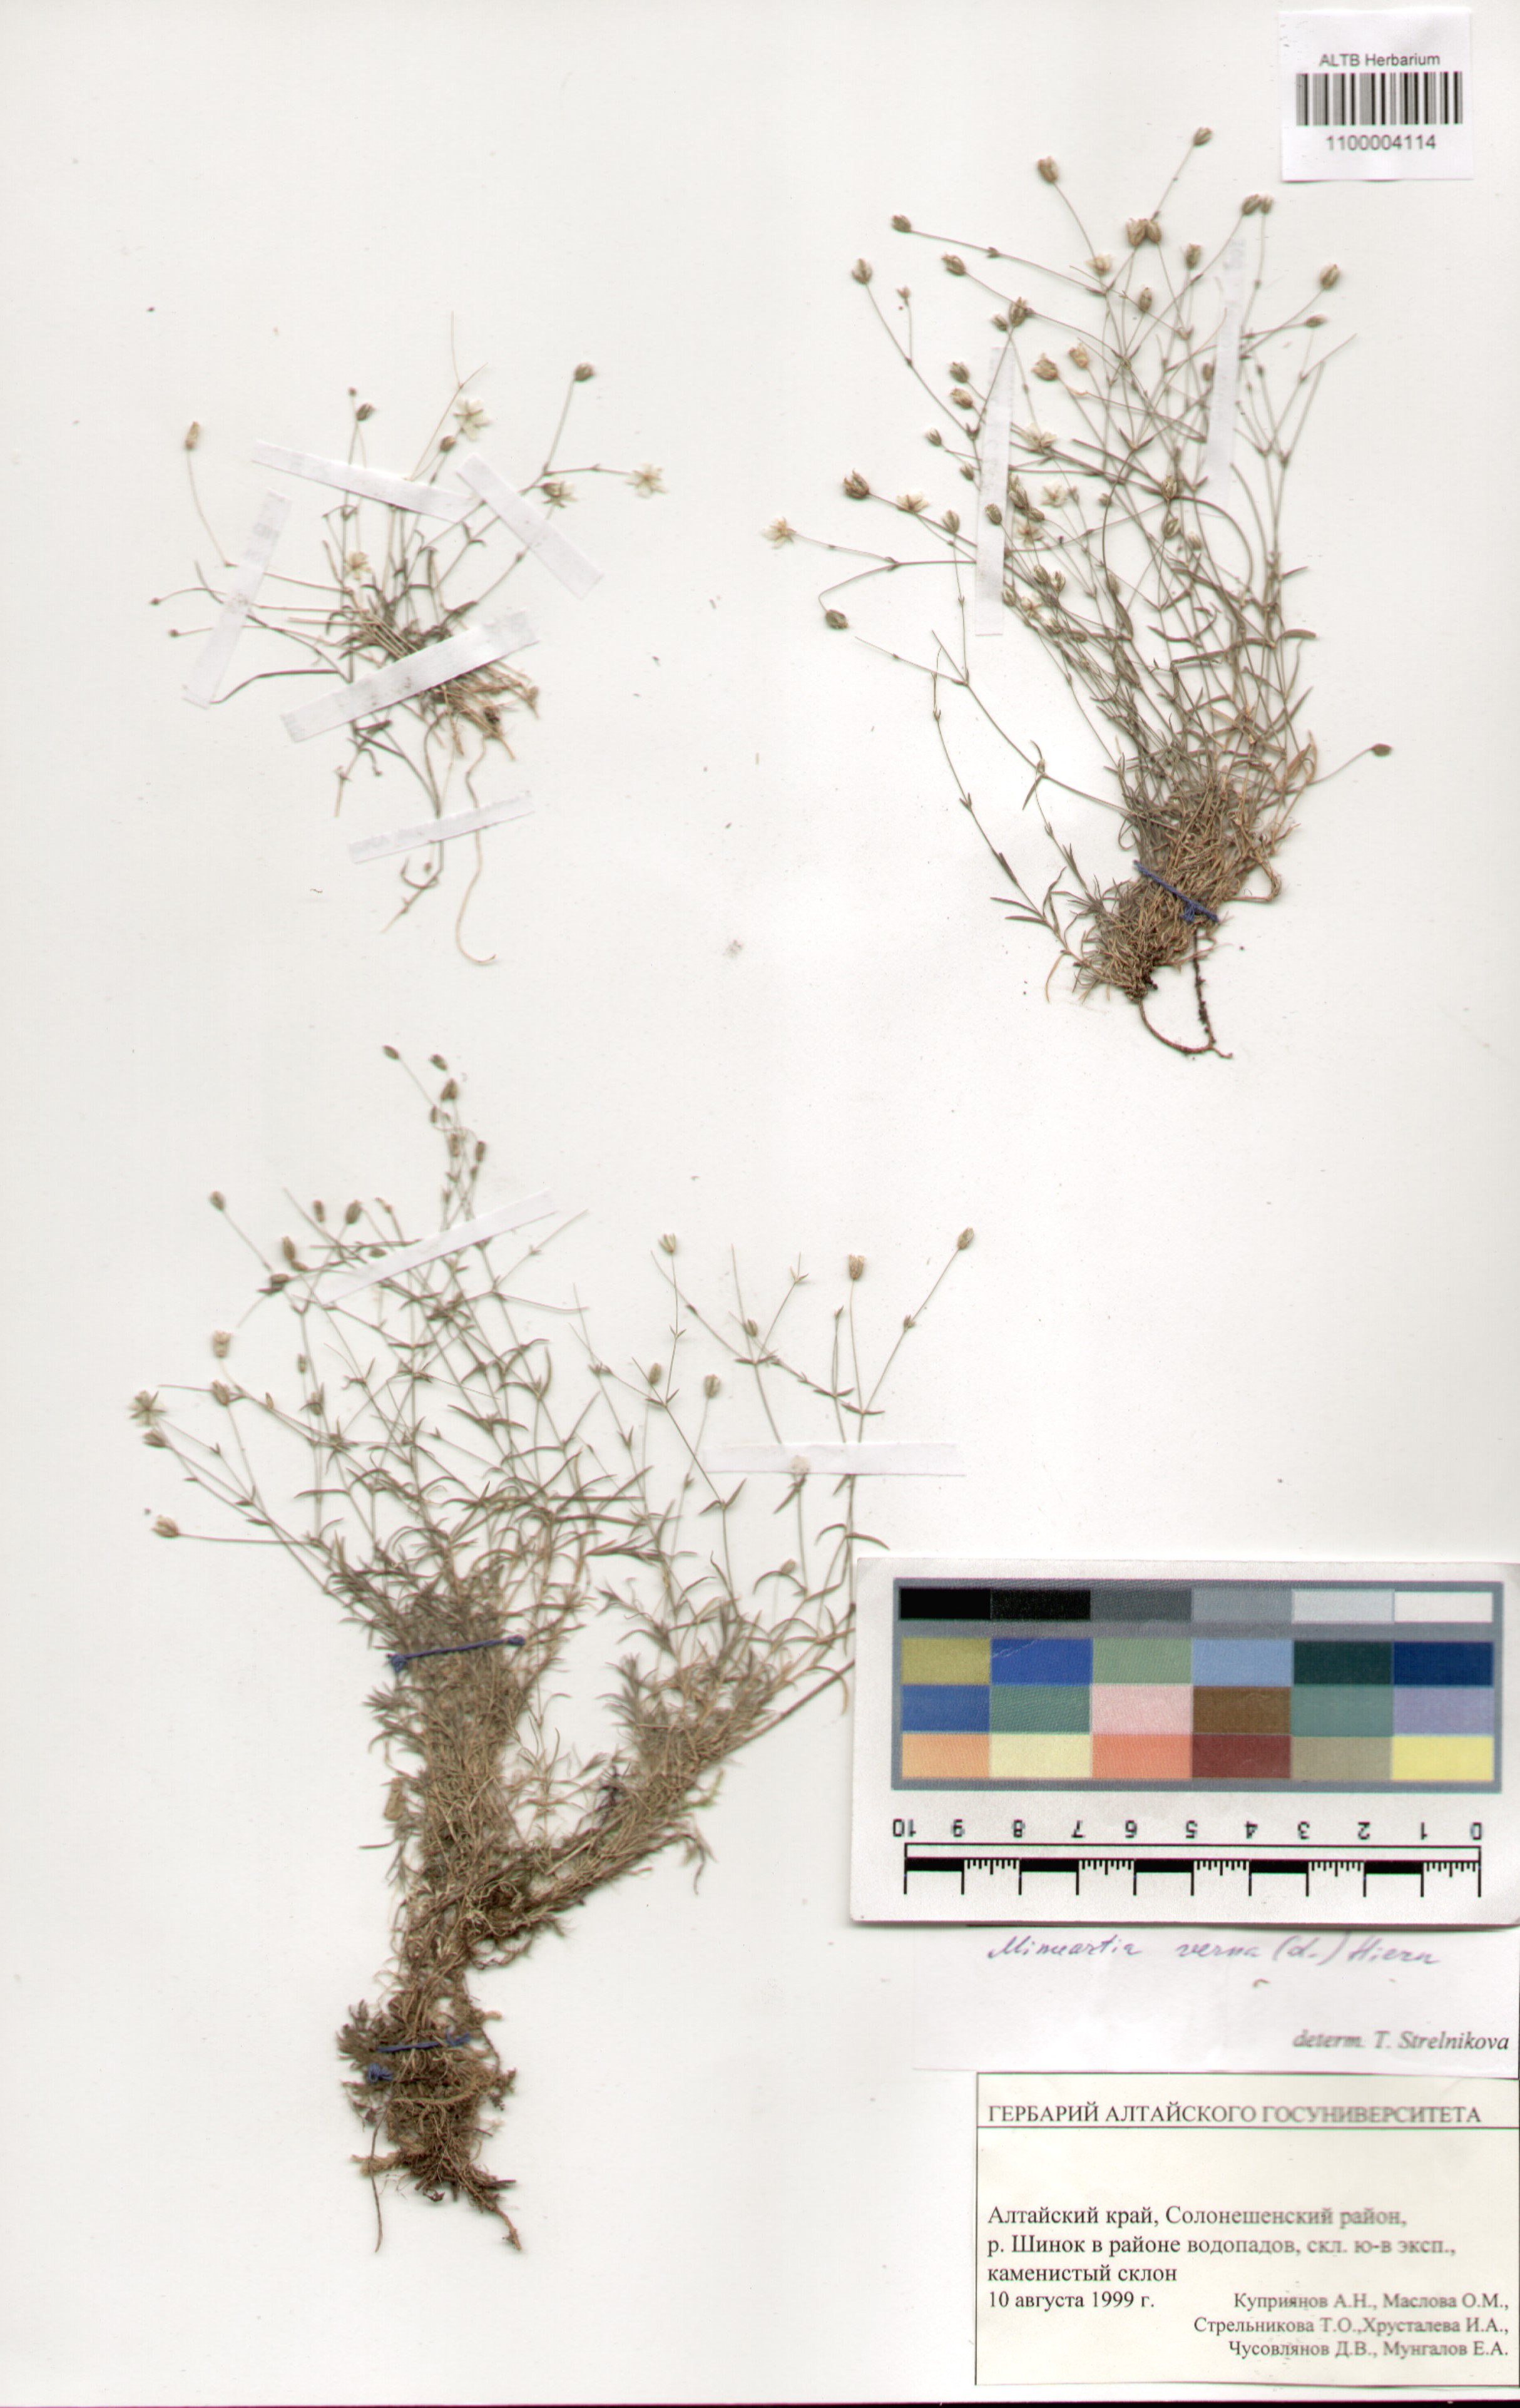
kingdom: Plantae
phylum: Tracheophyta
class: Magnoliopsida
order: Caryophyllales
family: Caryophyllaceae
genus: Sabulina
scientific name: Sabulina verna
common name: Spring sandwort
